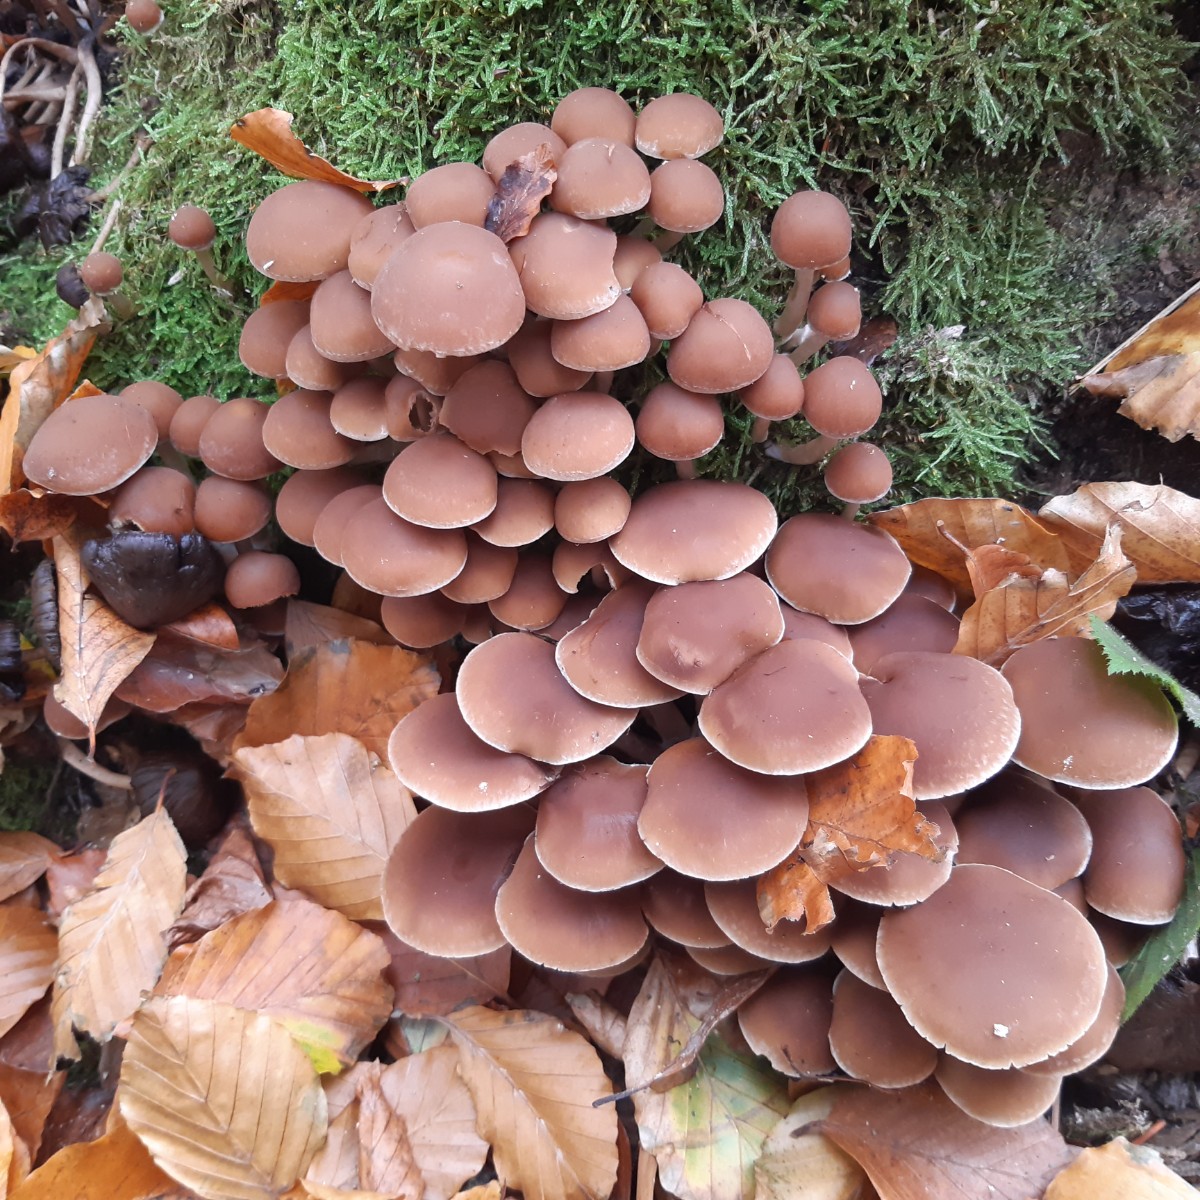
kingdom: Fungi
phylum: Basidiomycota
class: Agaricomycetes
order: Agaricales
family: Psathyrellaceae
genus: Psathyrella
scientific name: Psathyrella piluliformis
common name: lysstokket mørkhat
